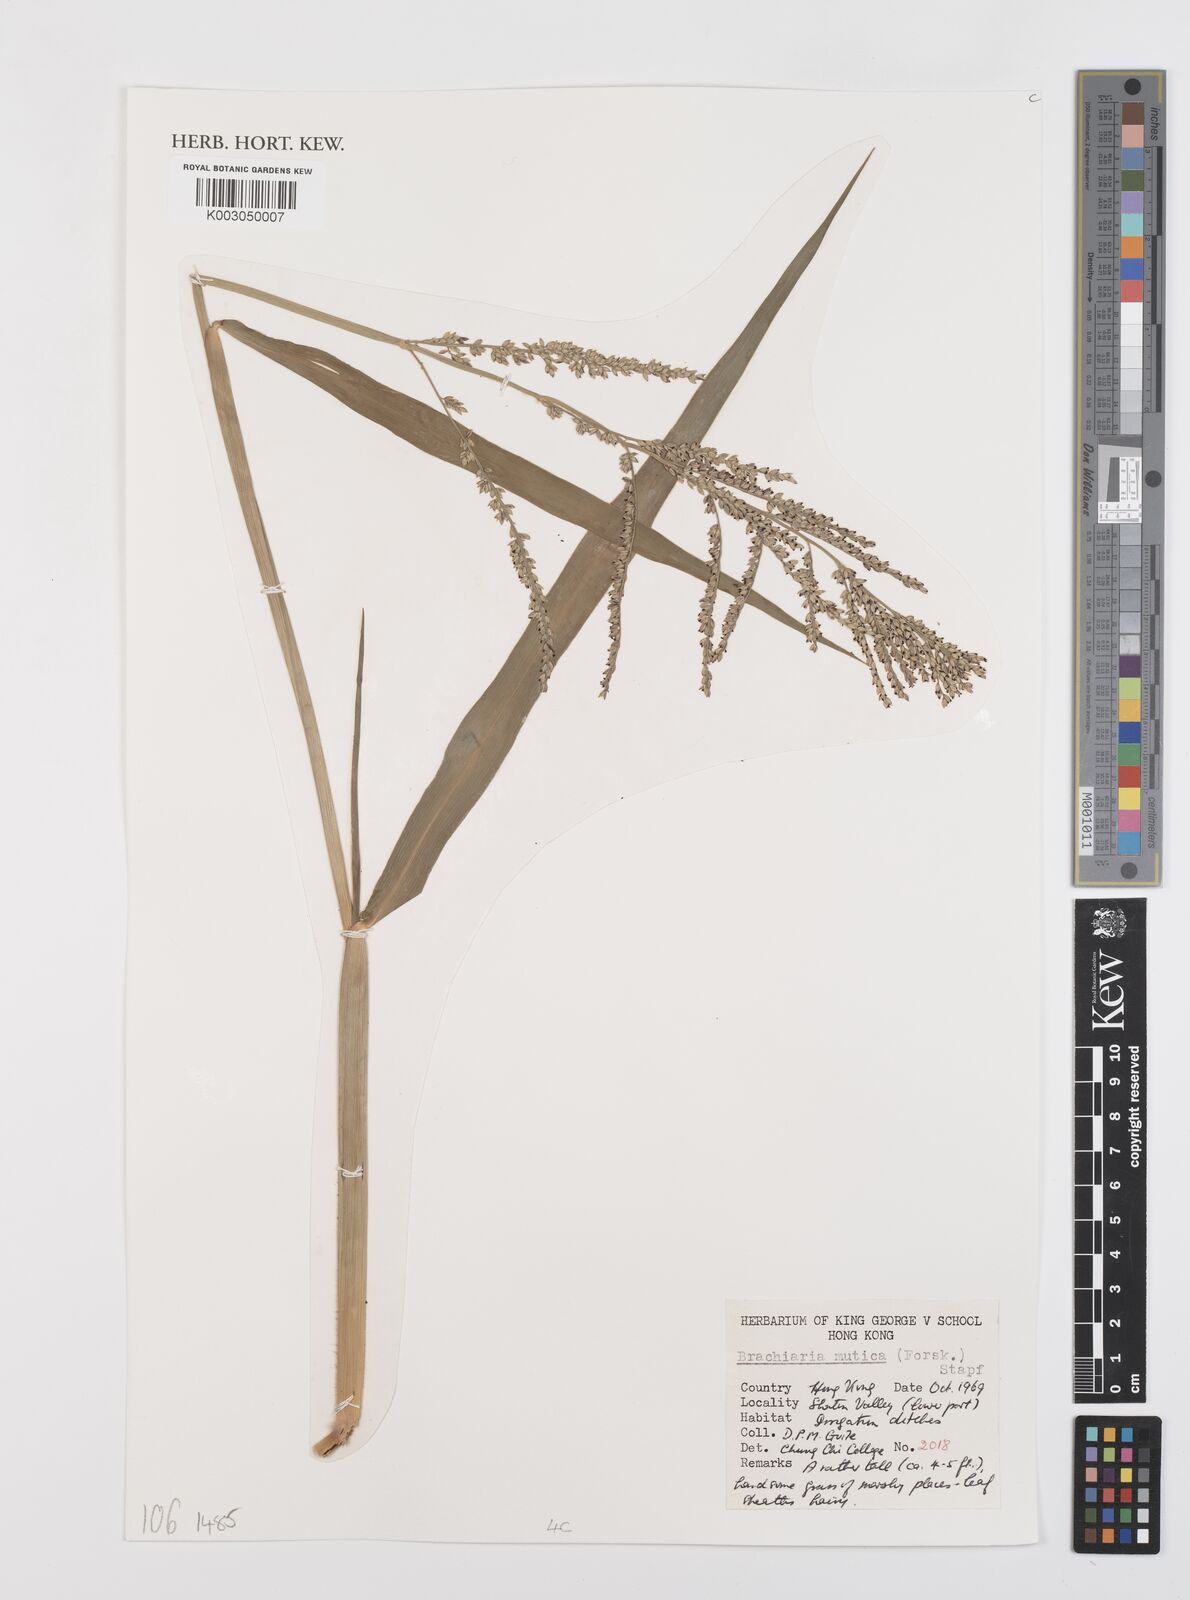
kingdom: Plantae
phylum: Tracheophyta
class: Liliopsida
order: Poales
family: Poaceae
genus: Urochloa
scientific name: Urochloa mutica
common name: Para grass
